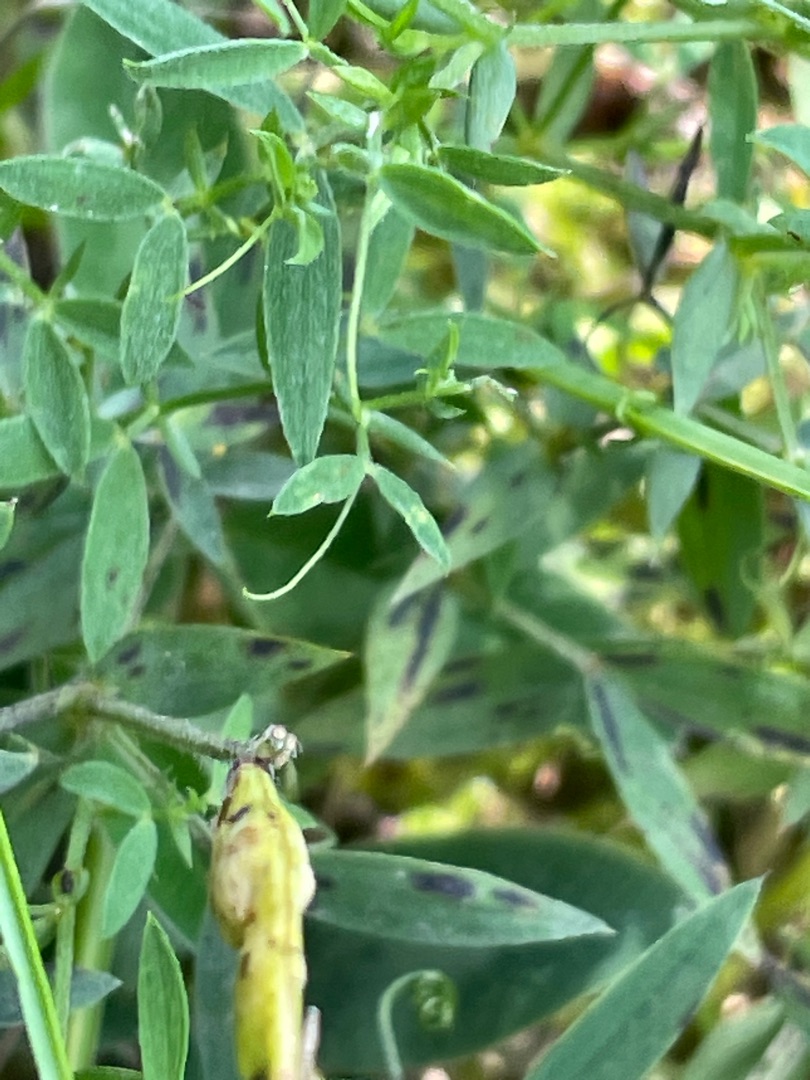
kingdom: Plantae
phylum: Tracheophyta
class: Magnoliopsida
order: Fabales
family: Fabaceae
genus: Lathyrus
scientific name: Lathyrus pratensis
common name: Gul fladbælg
